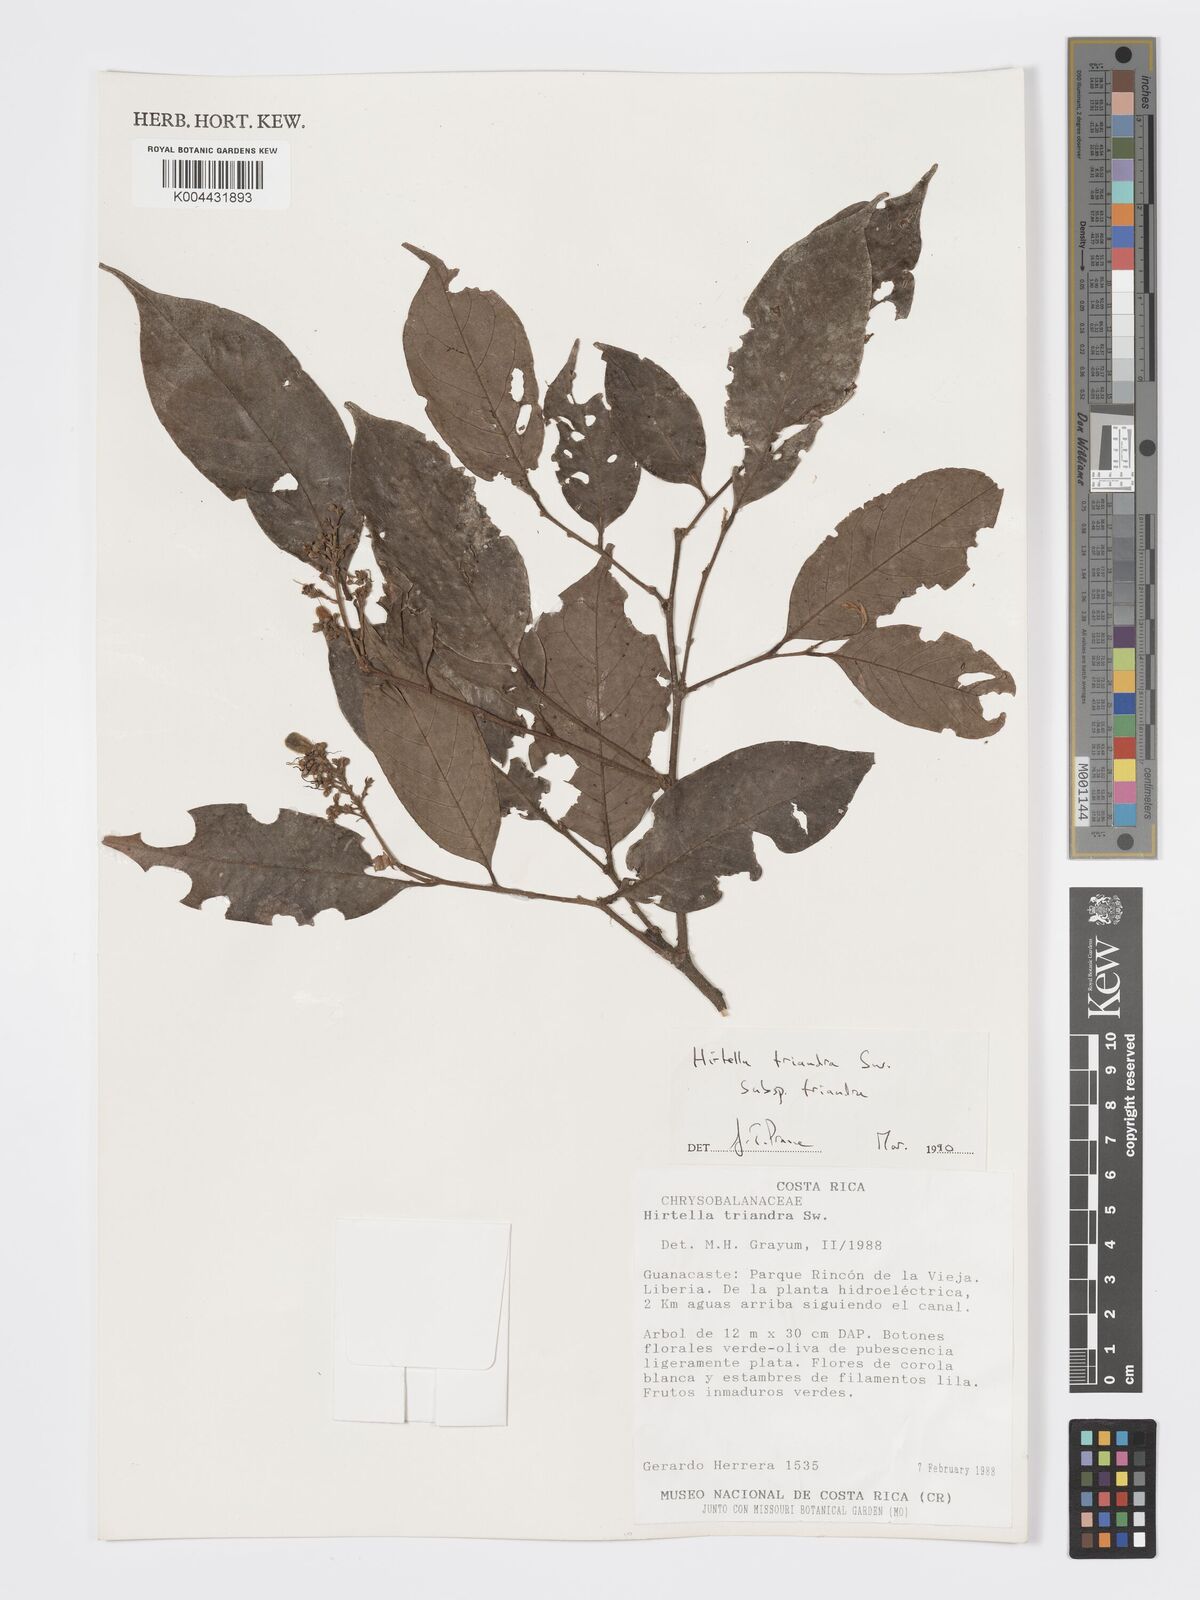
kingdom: Plantae
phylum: Tracheophyta
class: Magnoliopsida
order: Malpighiales
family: Chrysobalanaceae
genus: Hirtella
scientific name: Hirtella triandra
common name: Hairy plum
